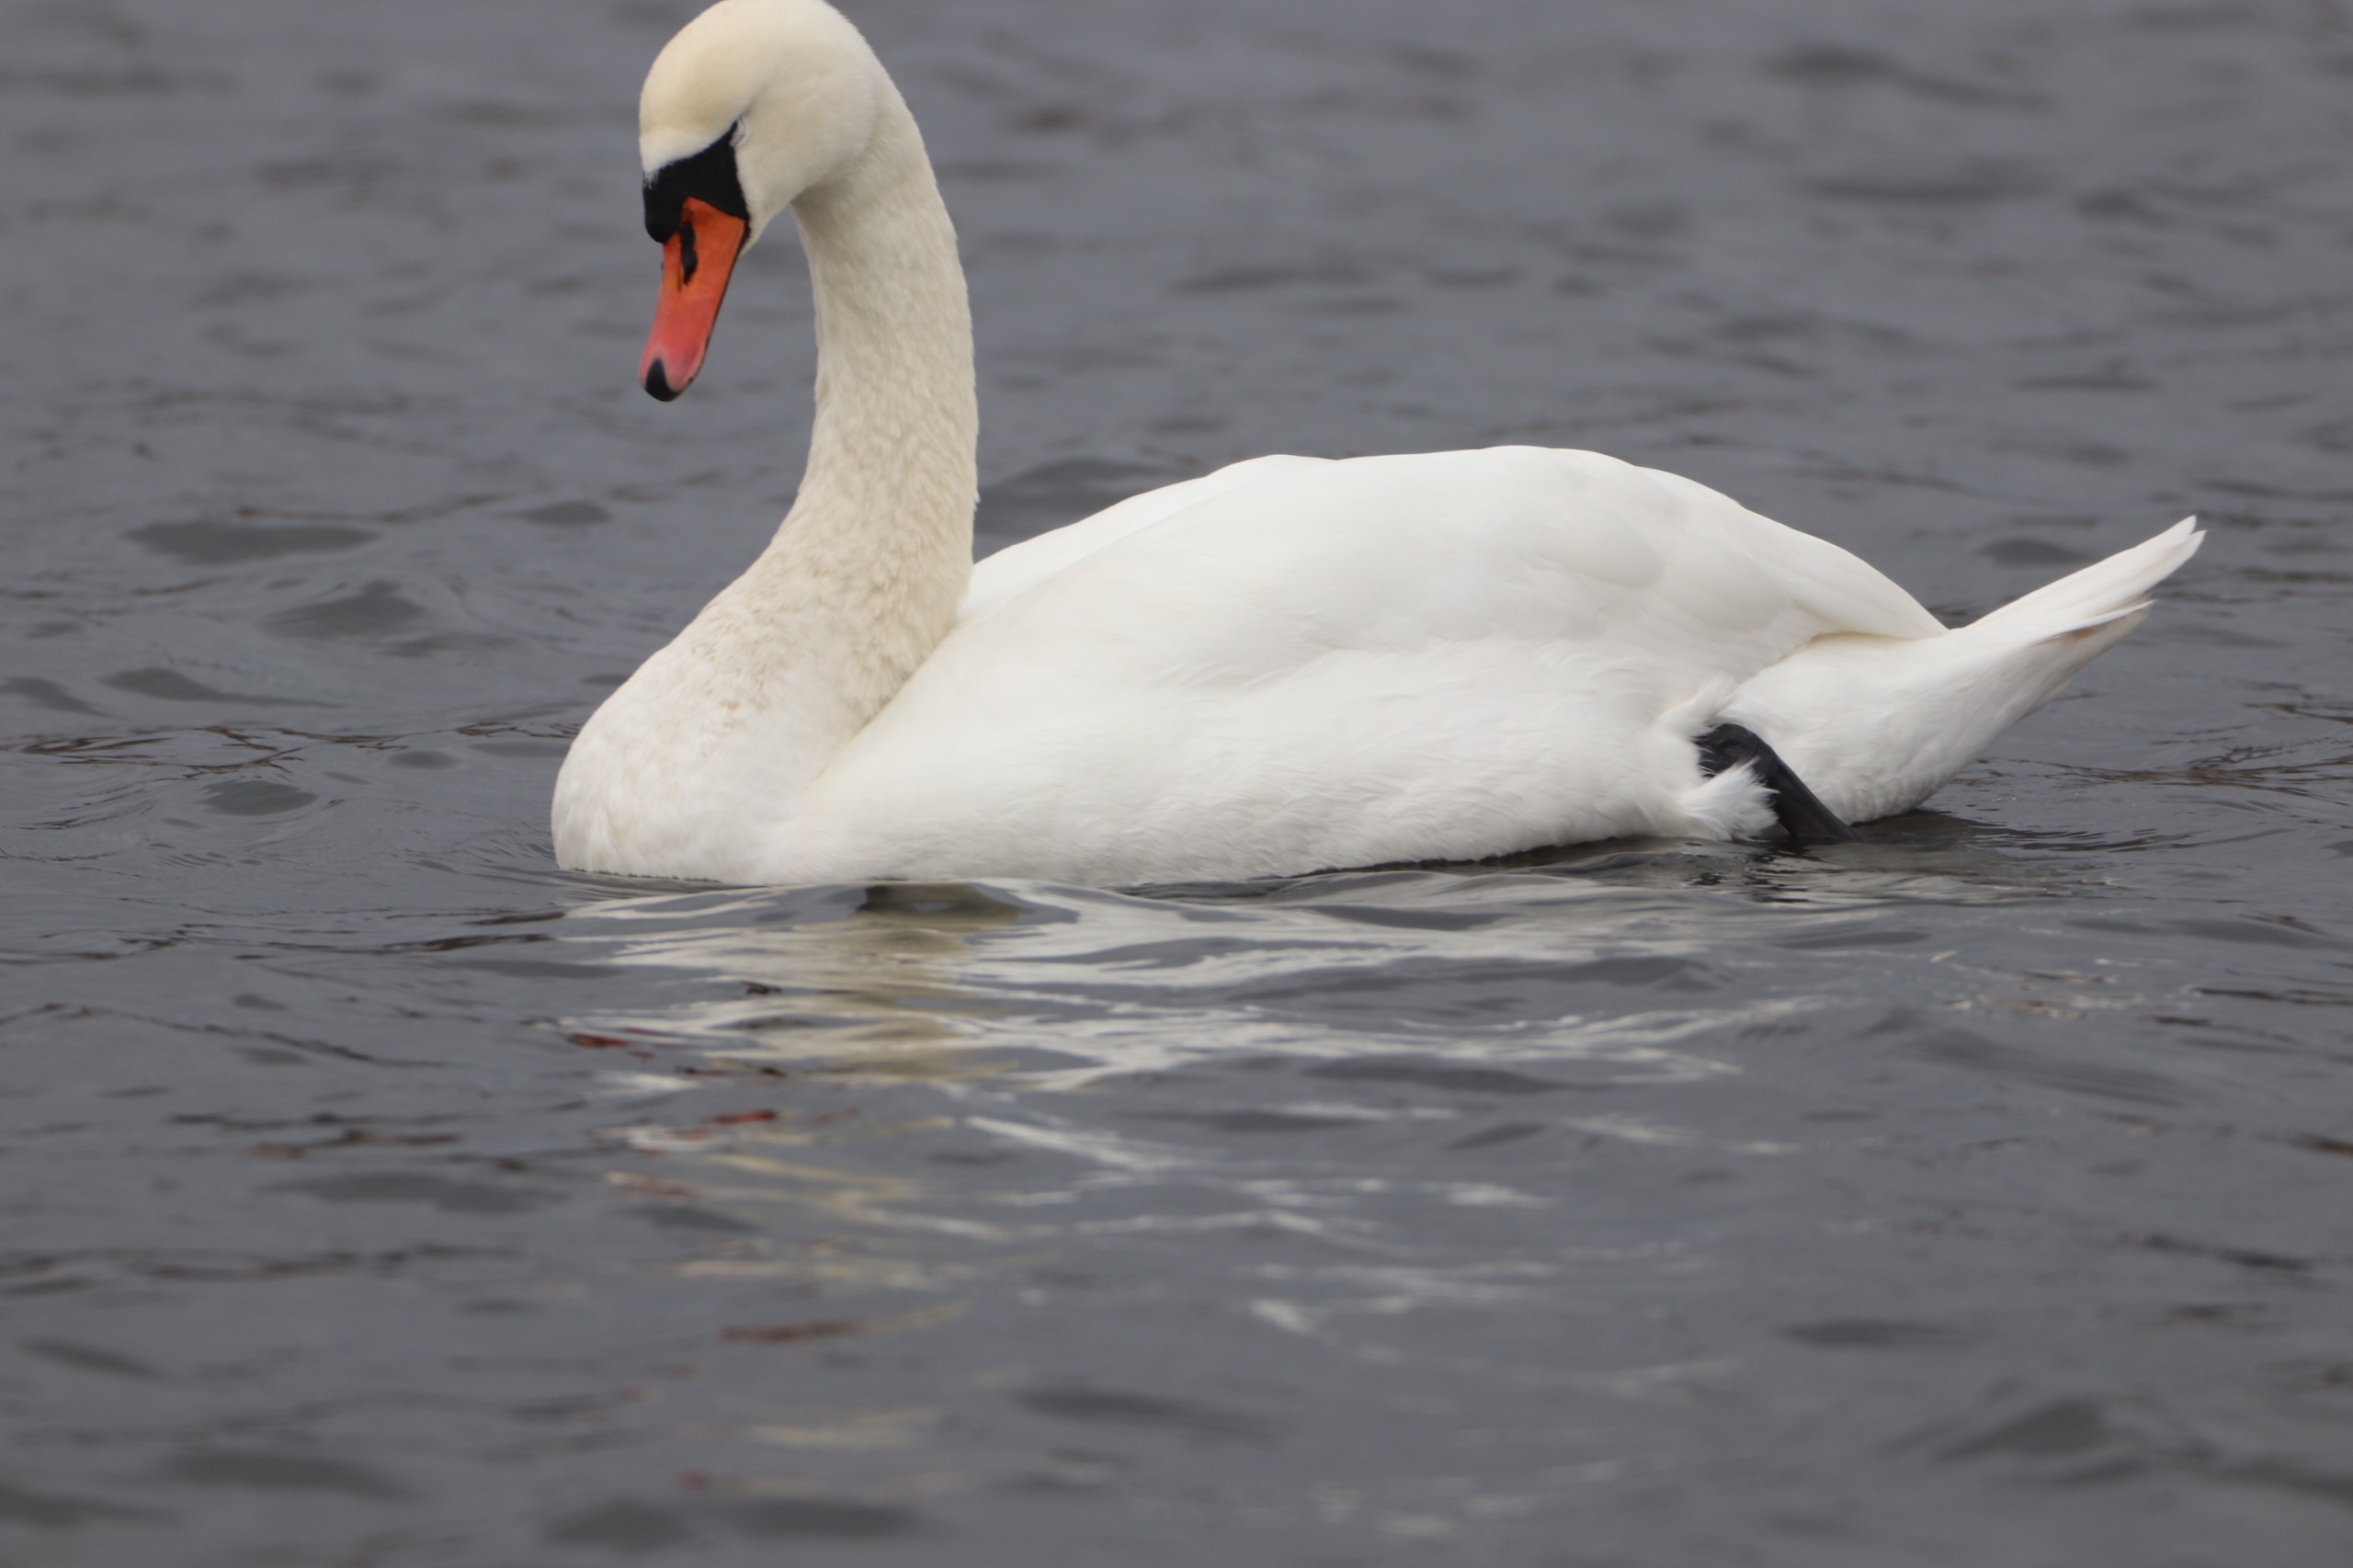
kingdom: Animalia
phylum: Chordata
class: Aves
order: Anseriformes
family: Anatidae
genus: Cygnus
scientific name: Cygnus olor
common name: Knopsvane
